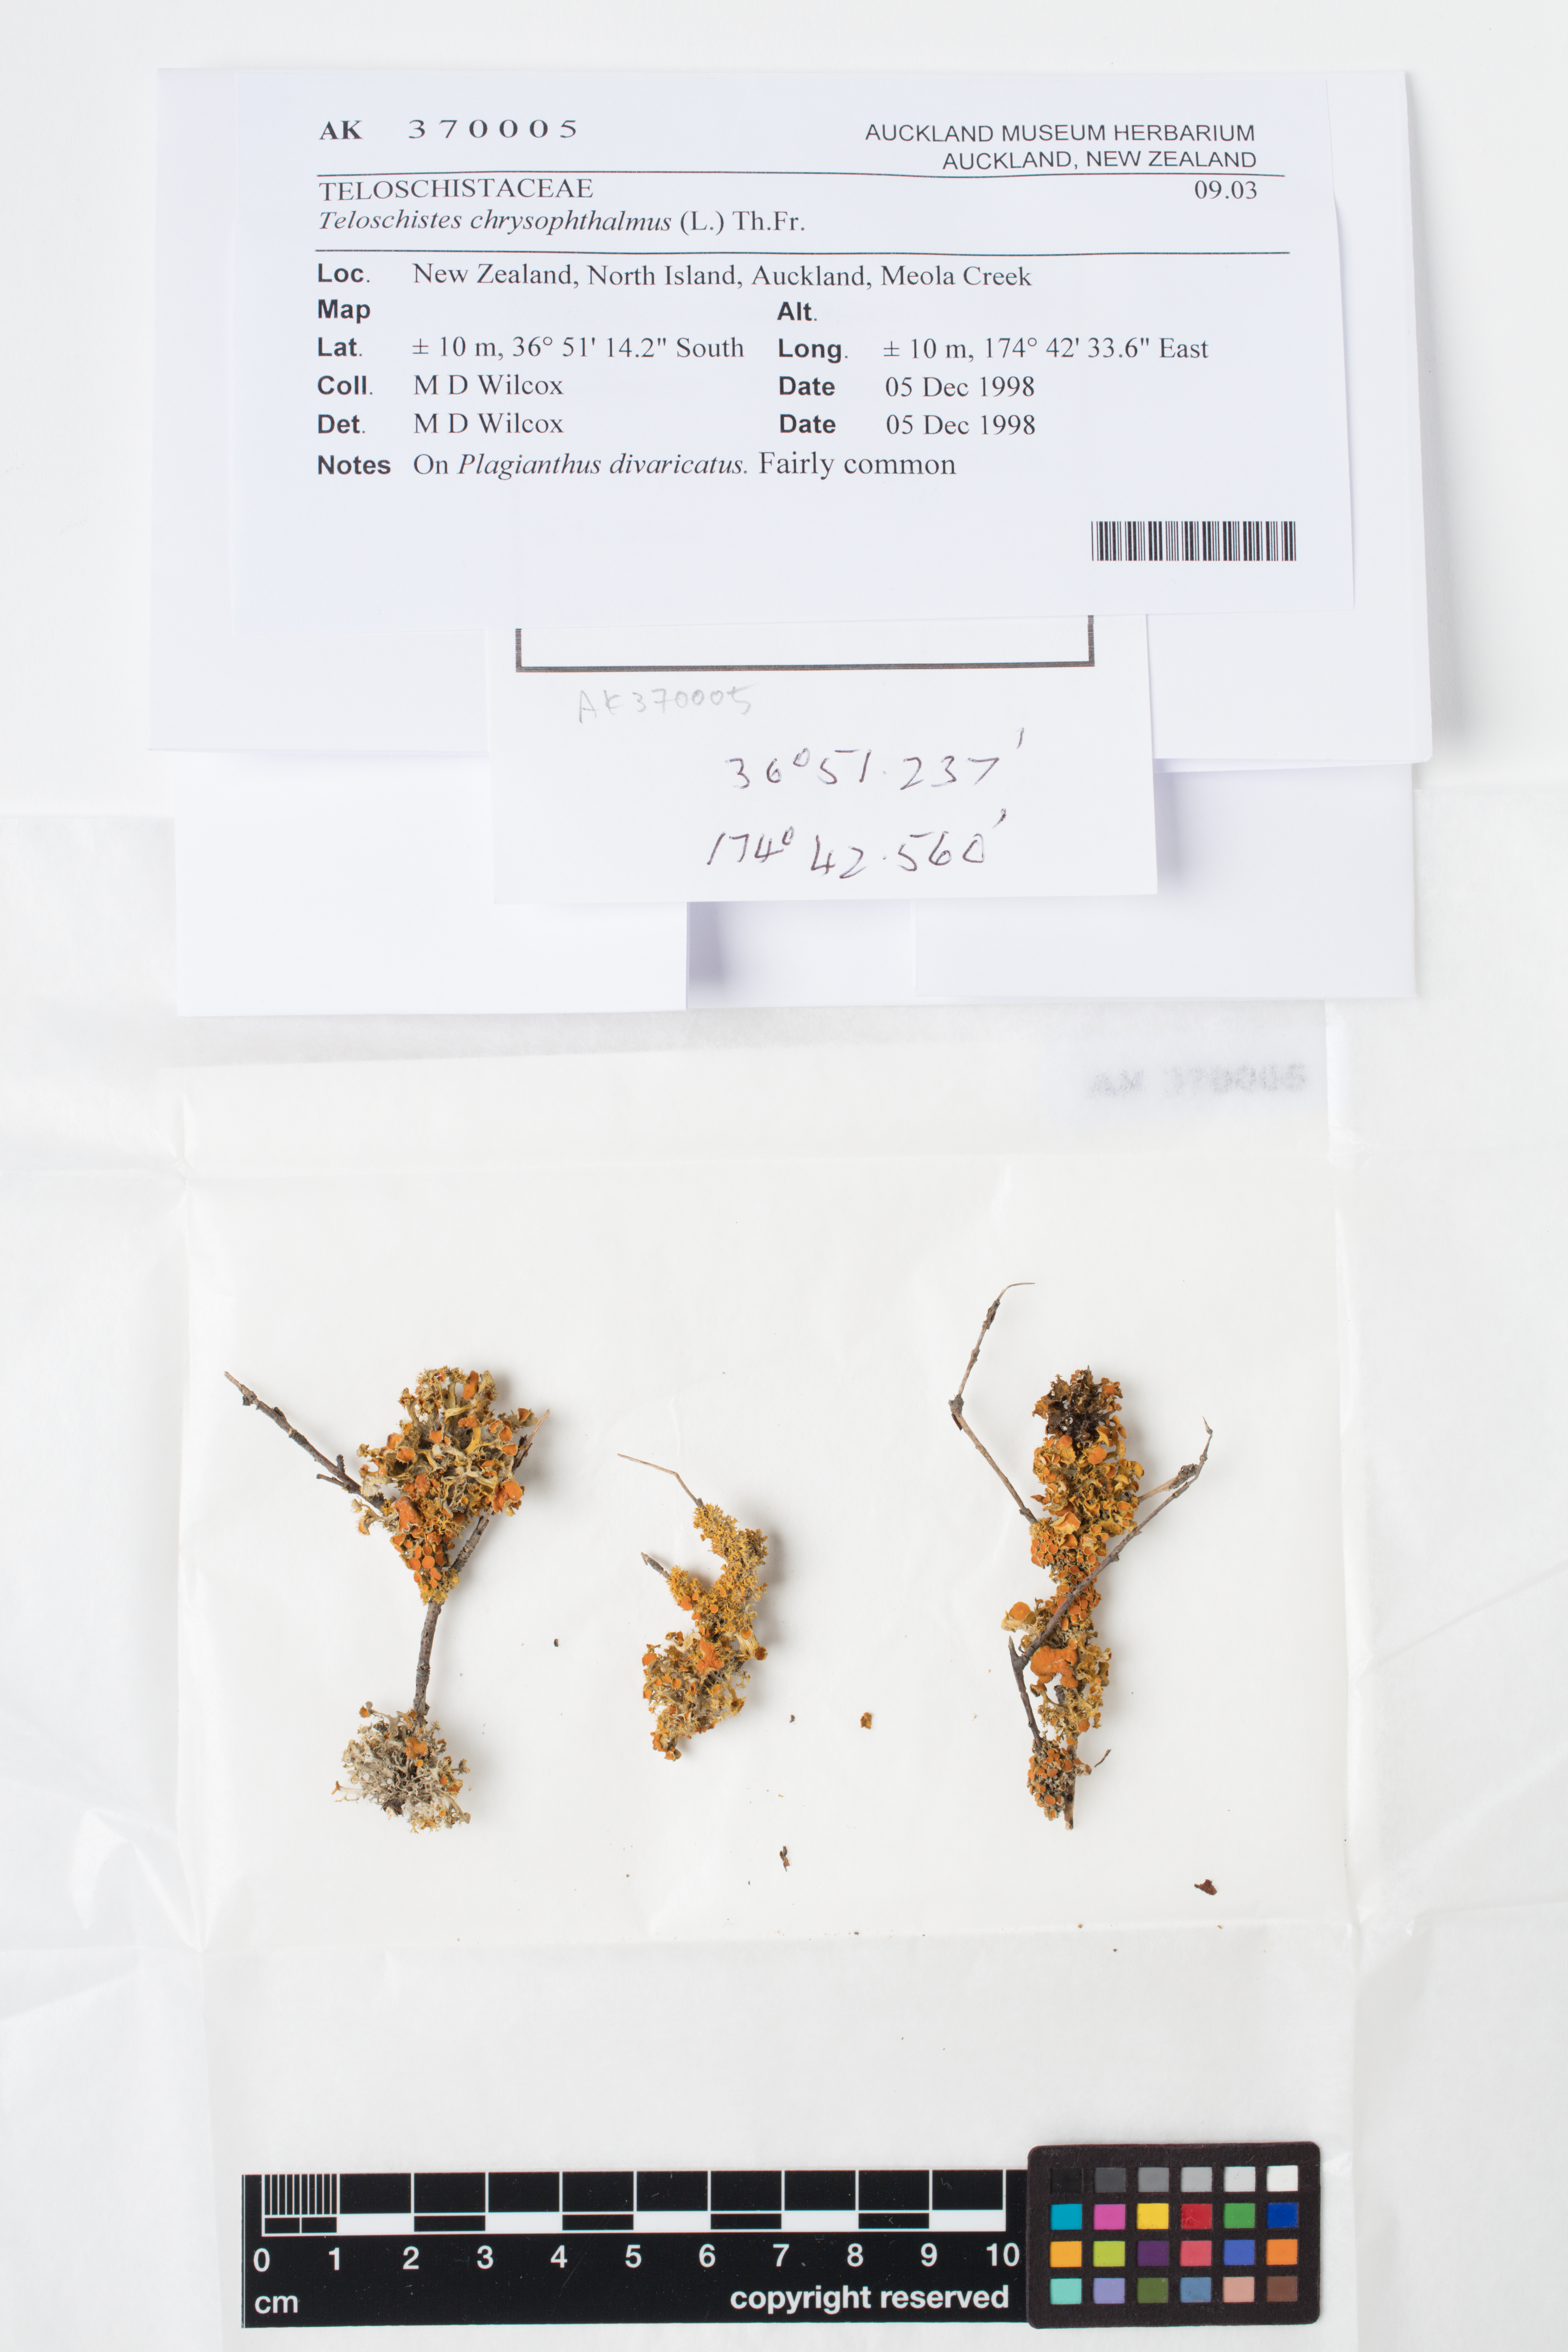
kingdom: Fungi
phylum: Ascomycota
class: Lecanoromycetes
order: Teloschistales
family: Teloschistaceae
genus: Niorma
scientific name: Niorma chrysophthalma
